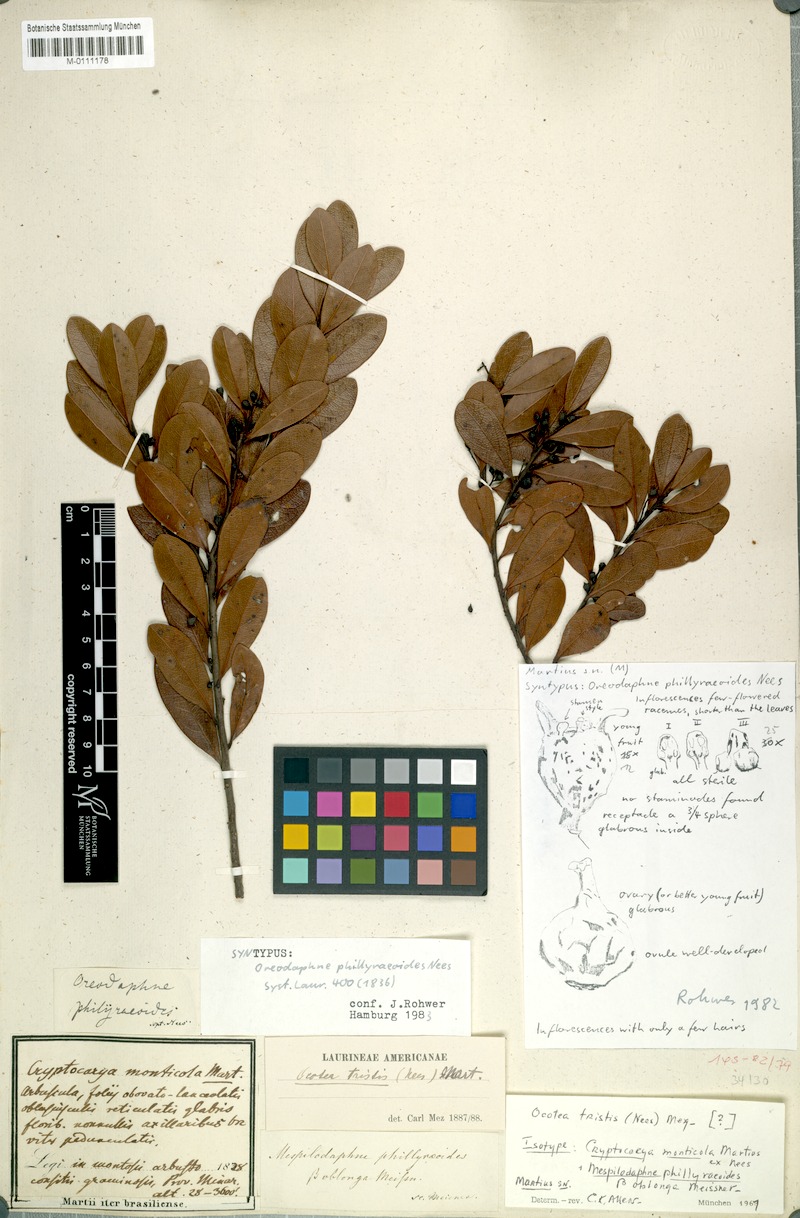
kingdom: Plantae
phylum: Tracheophyta
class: Magnoliopsida
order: Laurales
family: Lauraceae
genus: Mespilodaphne
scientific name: Mespilodaphne tristis
